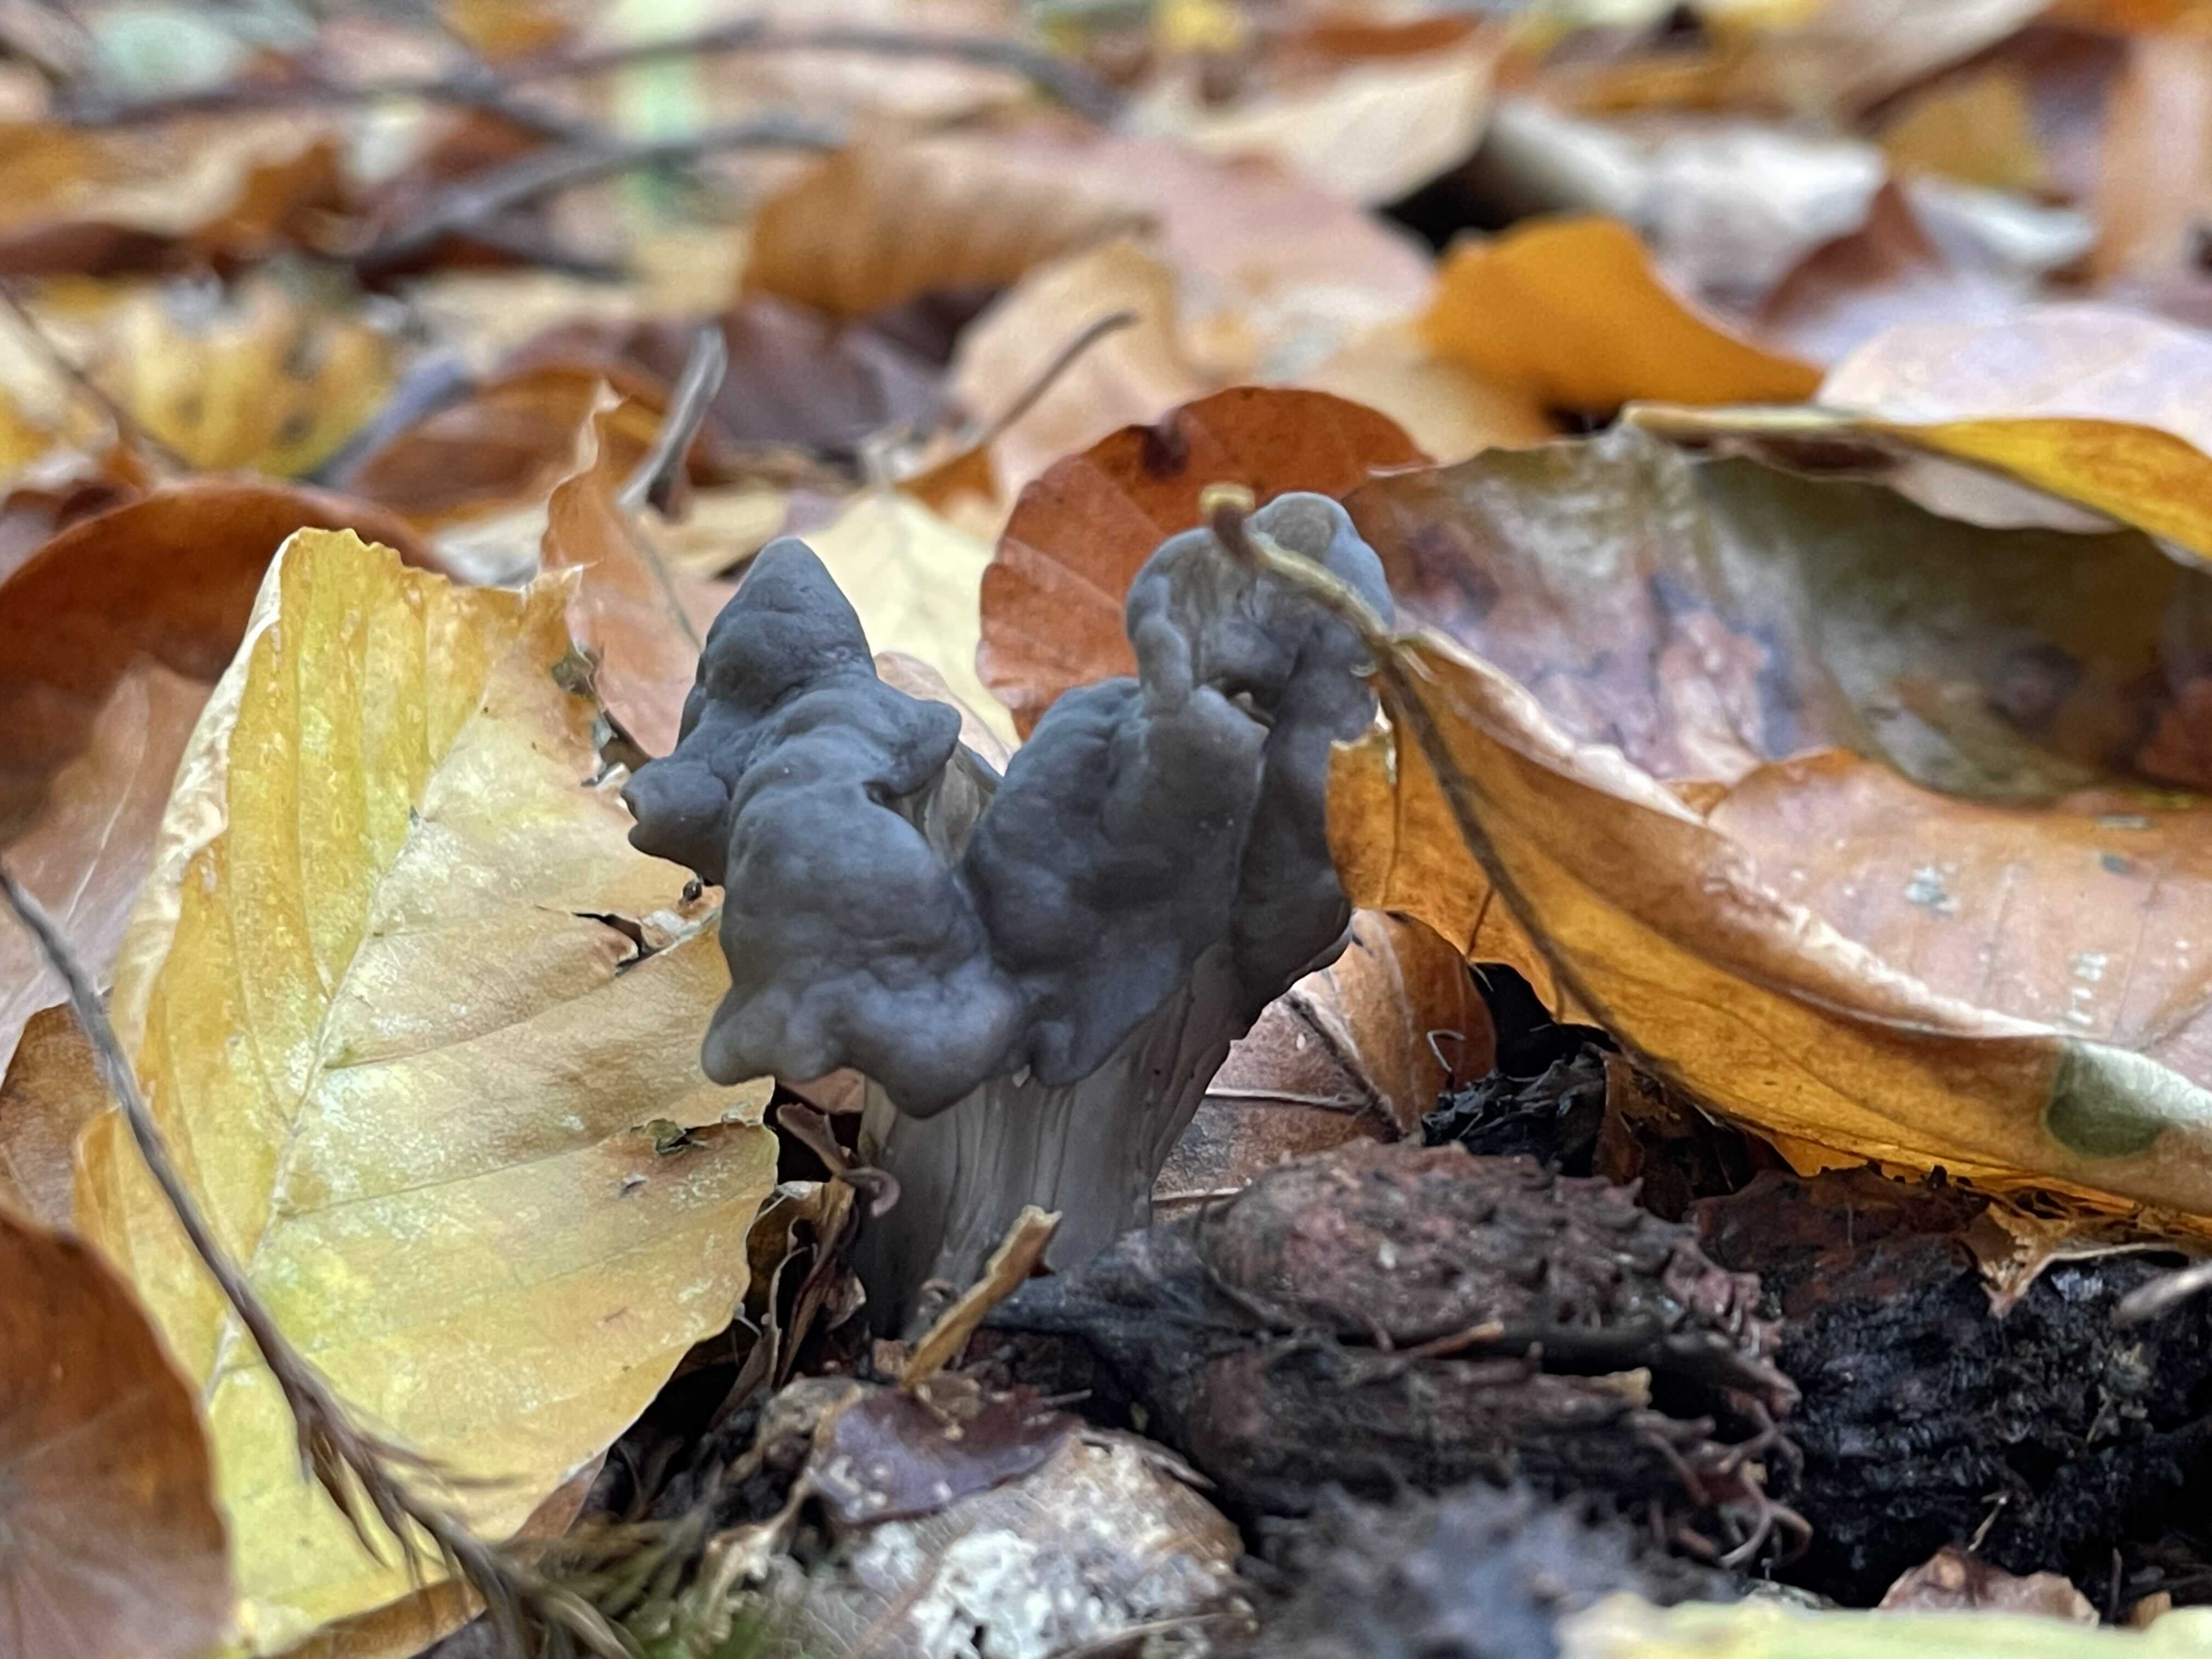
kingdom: Fungi
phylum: Ascomycota
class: Pezizomycetes
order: Pezizales
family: Helvellaceae
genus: Helvella
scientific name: Helvella lacunosa
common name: grubet foldhat
